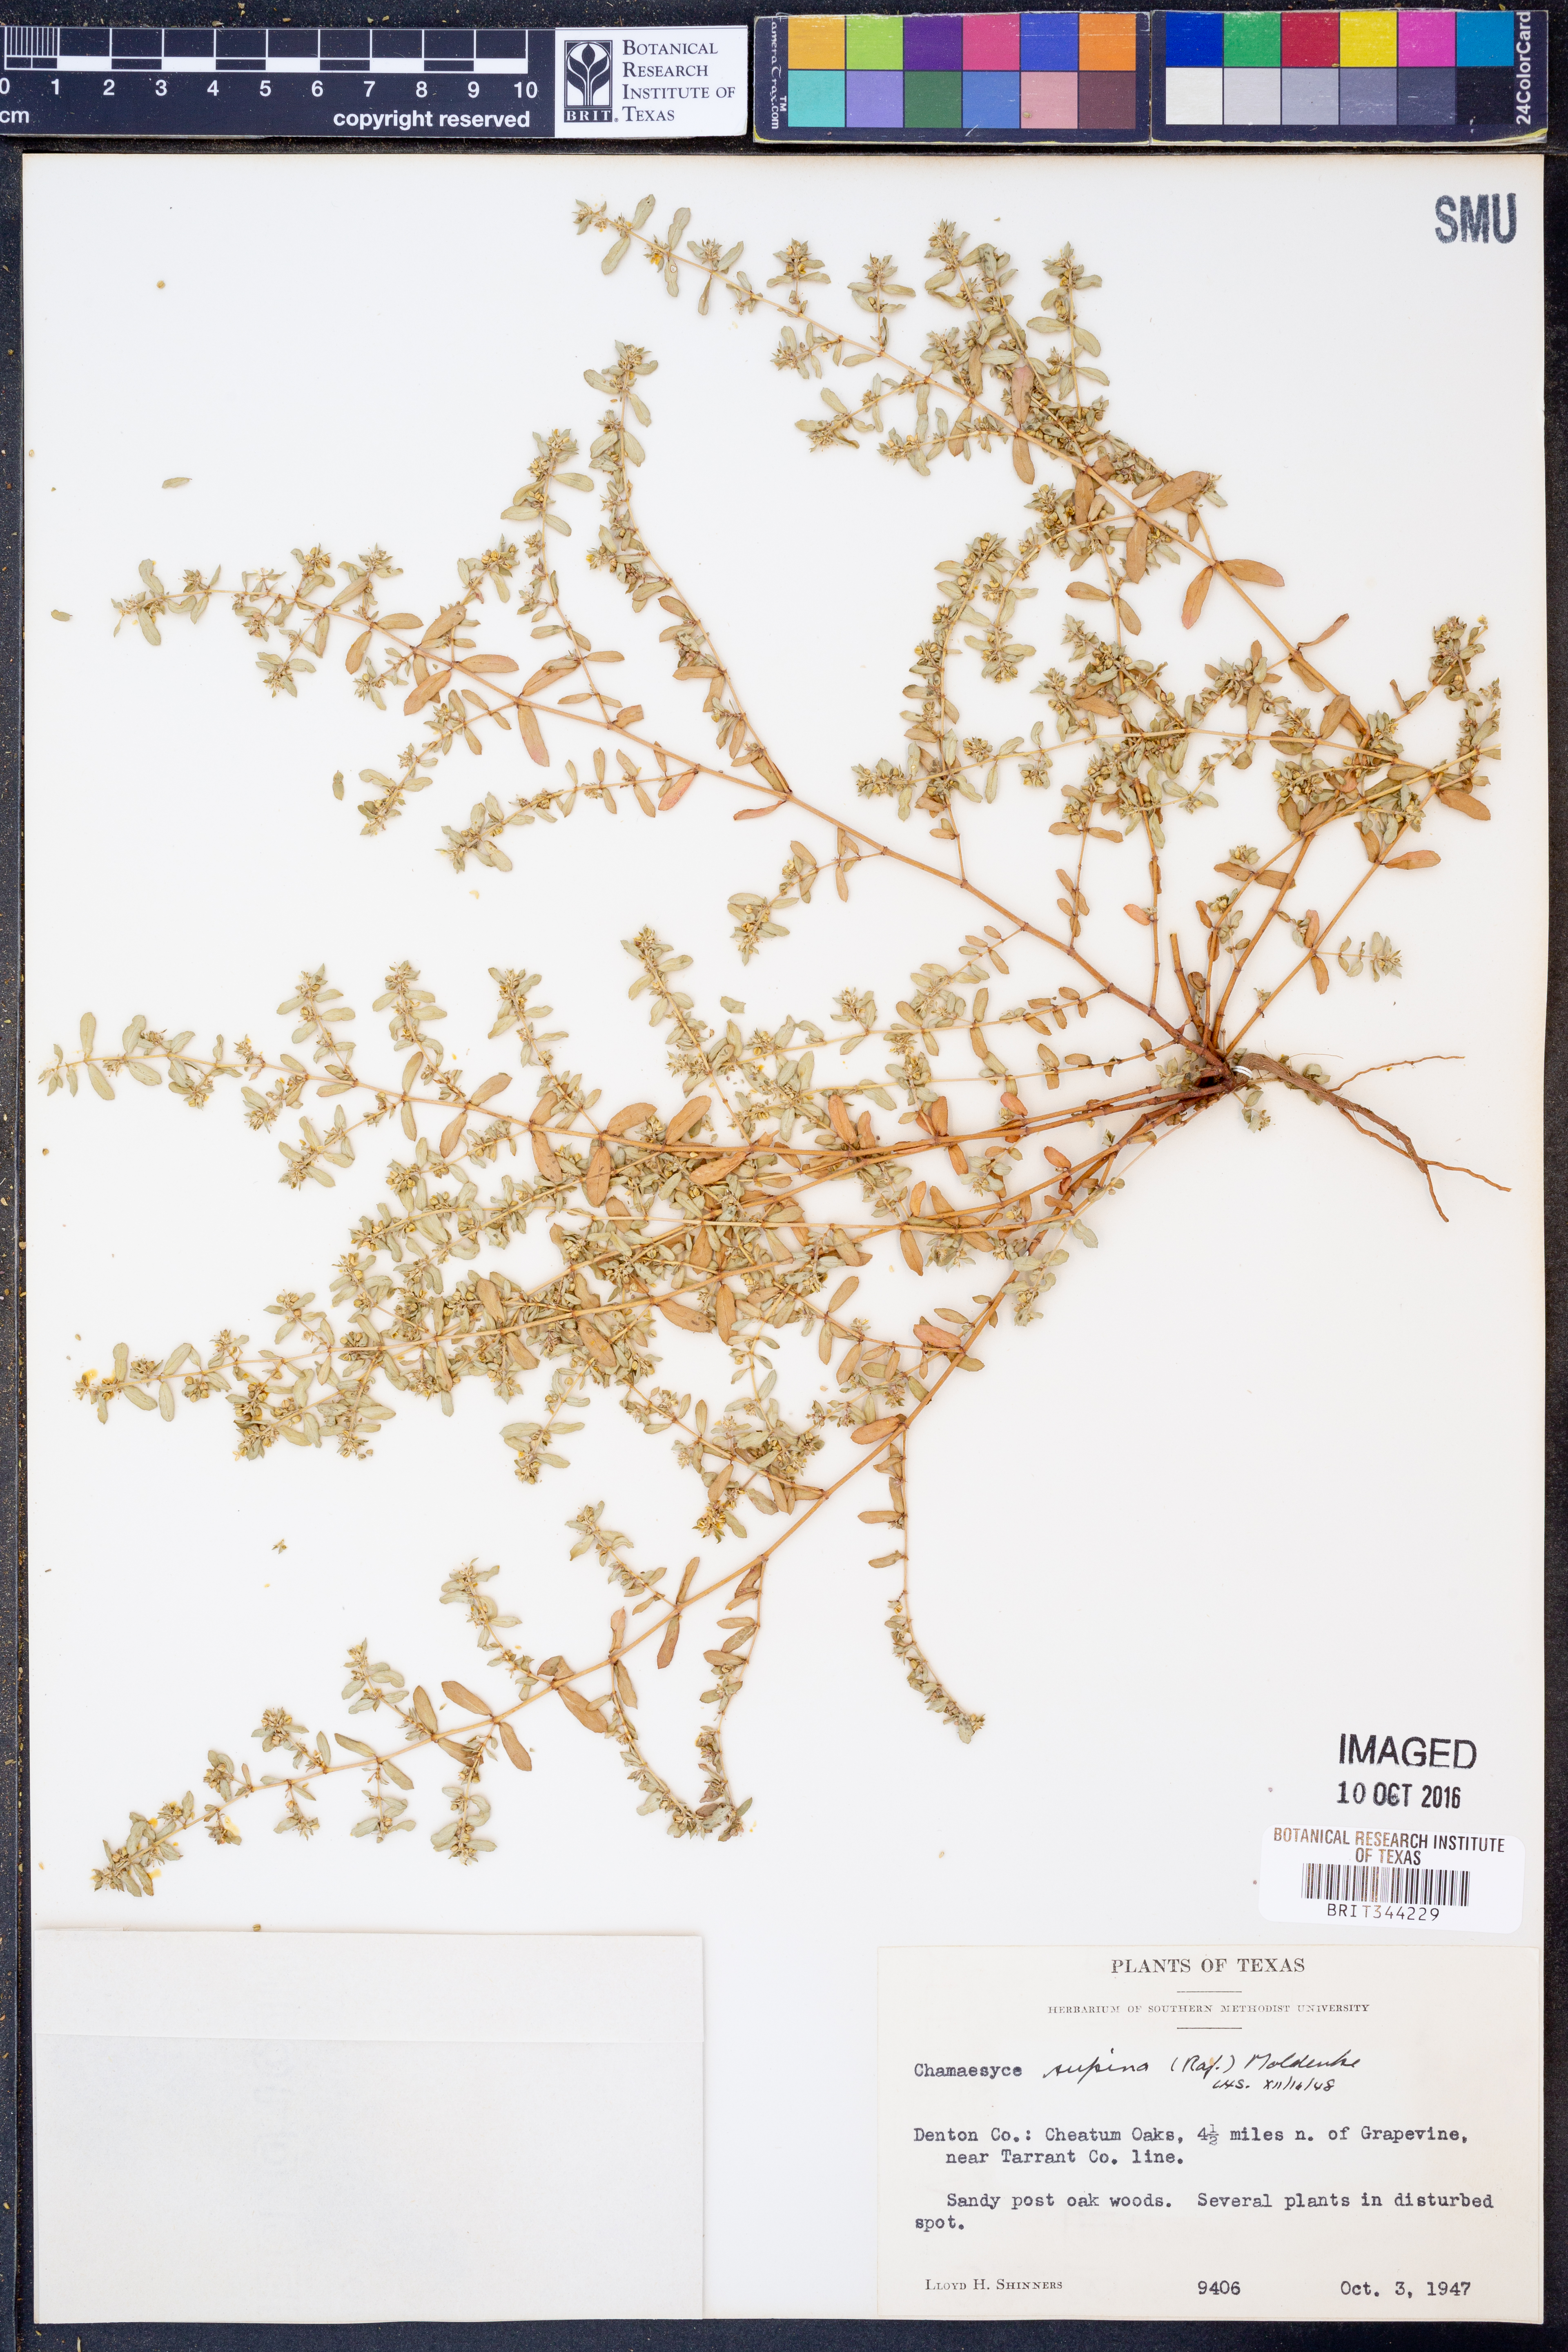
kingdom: Plantae
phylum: Tracheophyta
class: Magnoliopsida
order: Malpighiales
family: Euphorbiaceae
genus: Euphorbia
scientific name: Euphorbia maculata
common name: Spotted spurge
